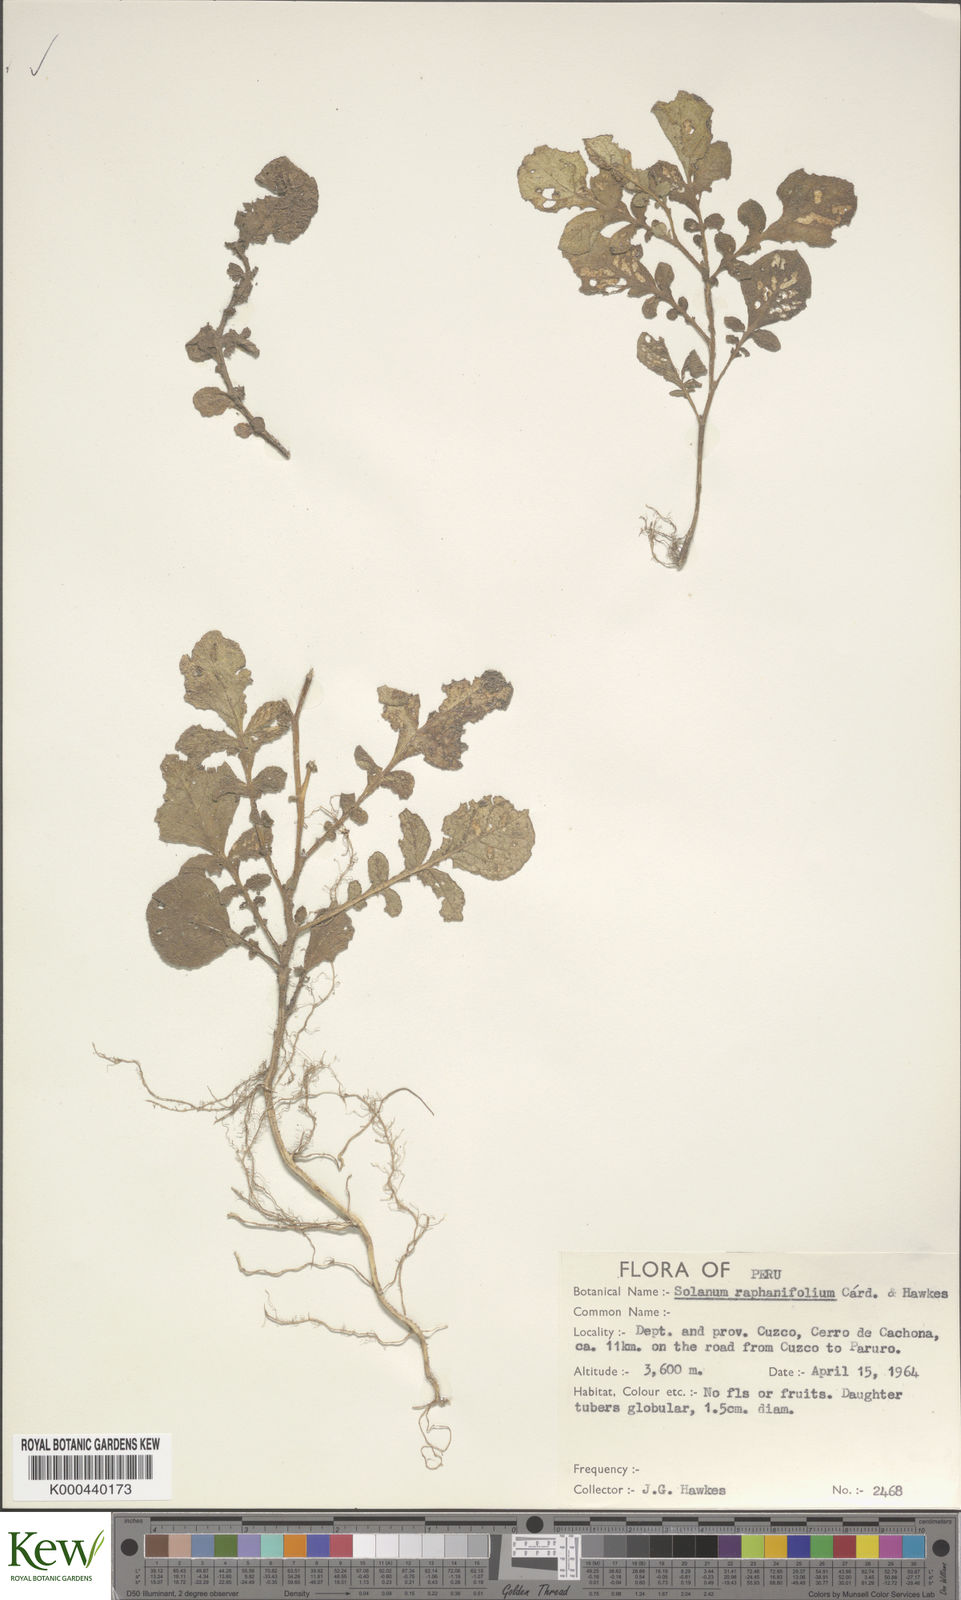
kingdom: Plantae
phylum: Tracheophyta
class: Magnoliopsida
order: Solanales
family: Solanaceae
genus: Solanum
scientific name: Solanum raphanifolium
